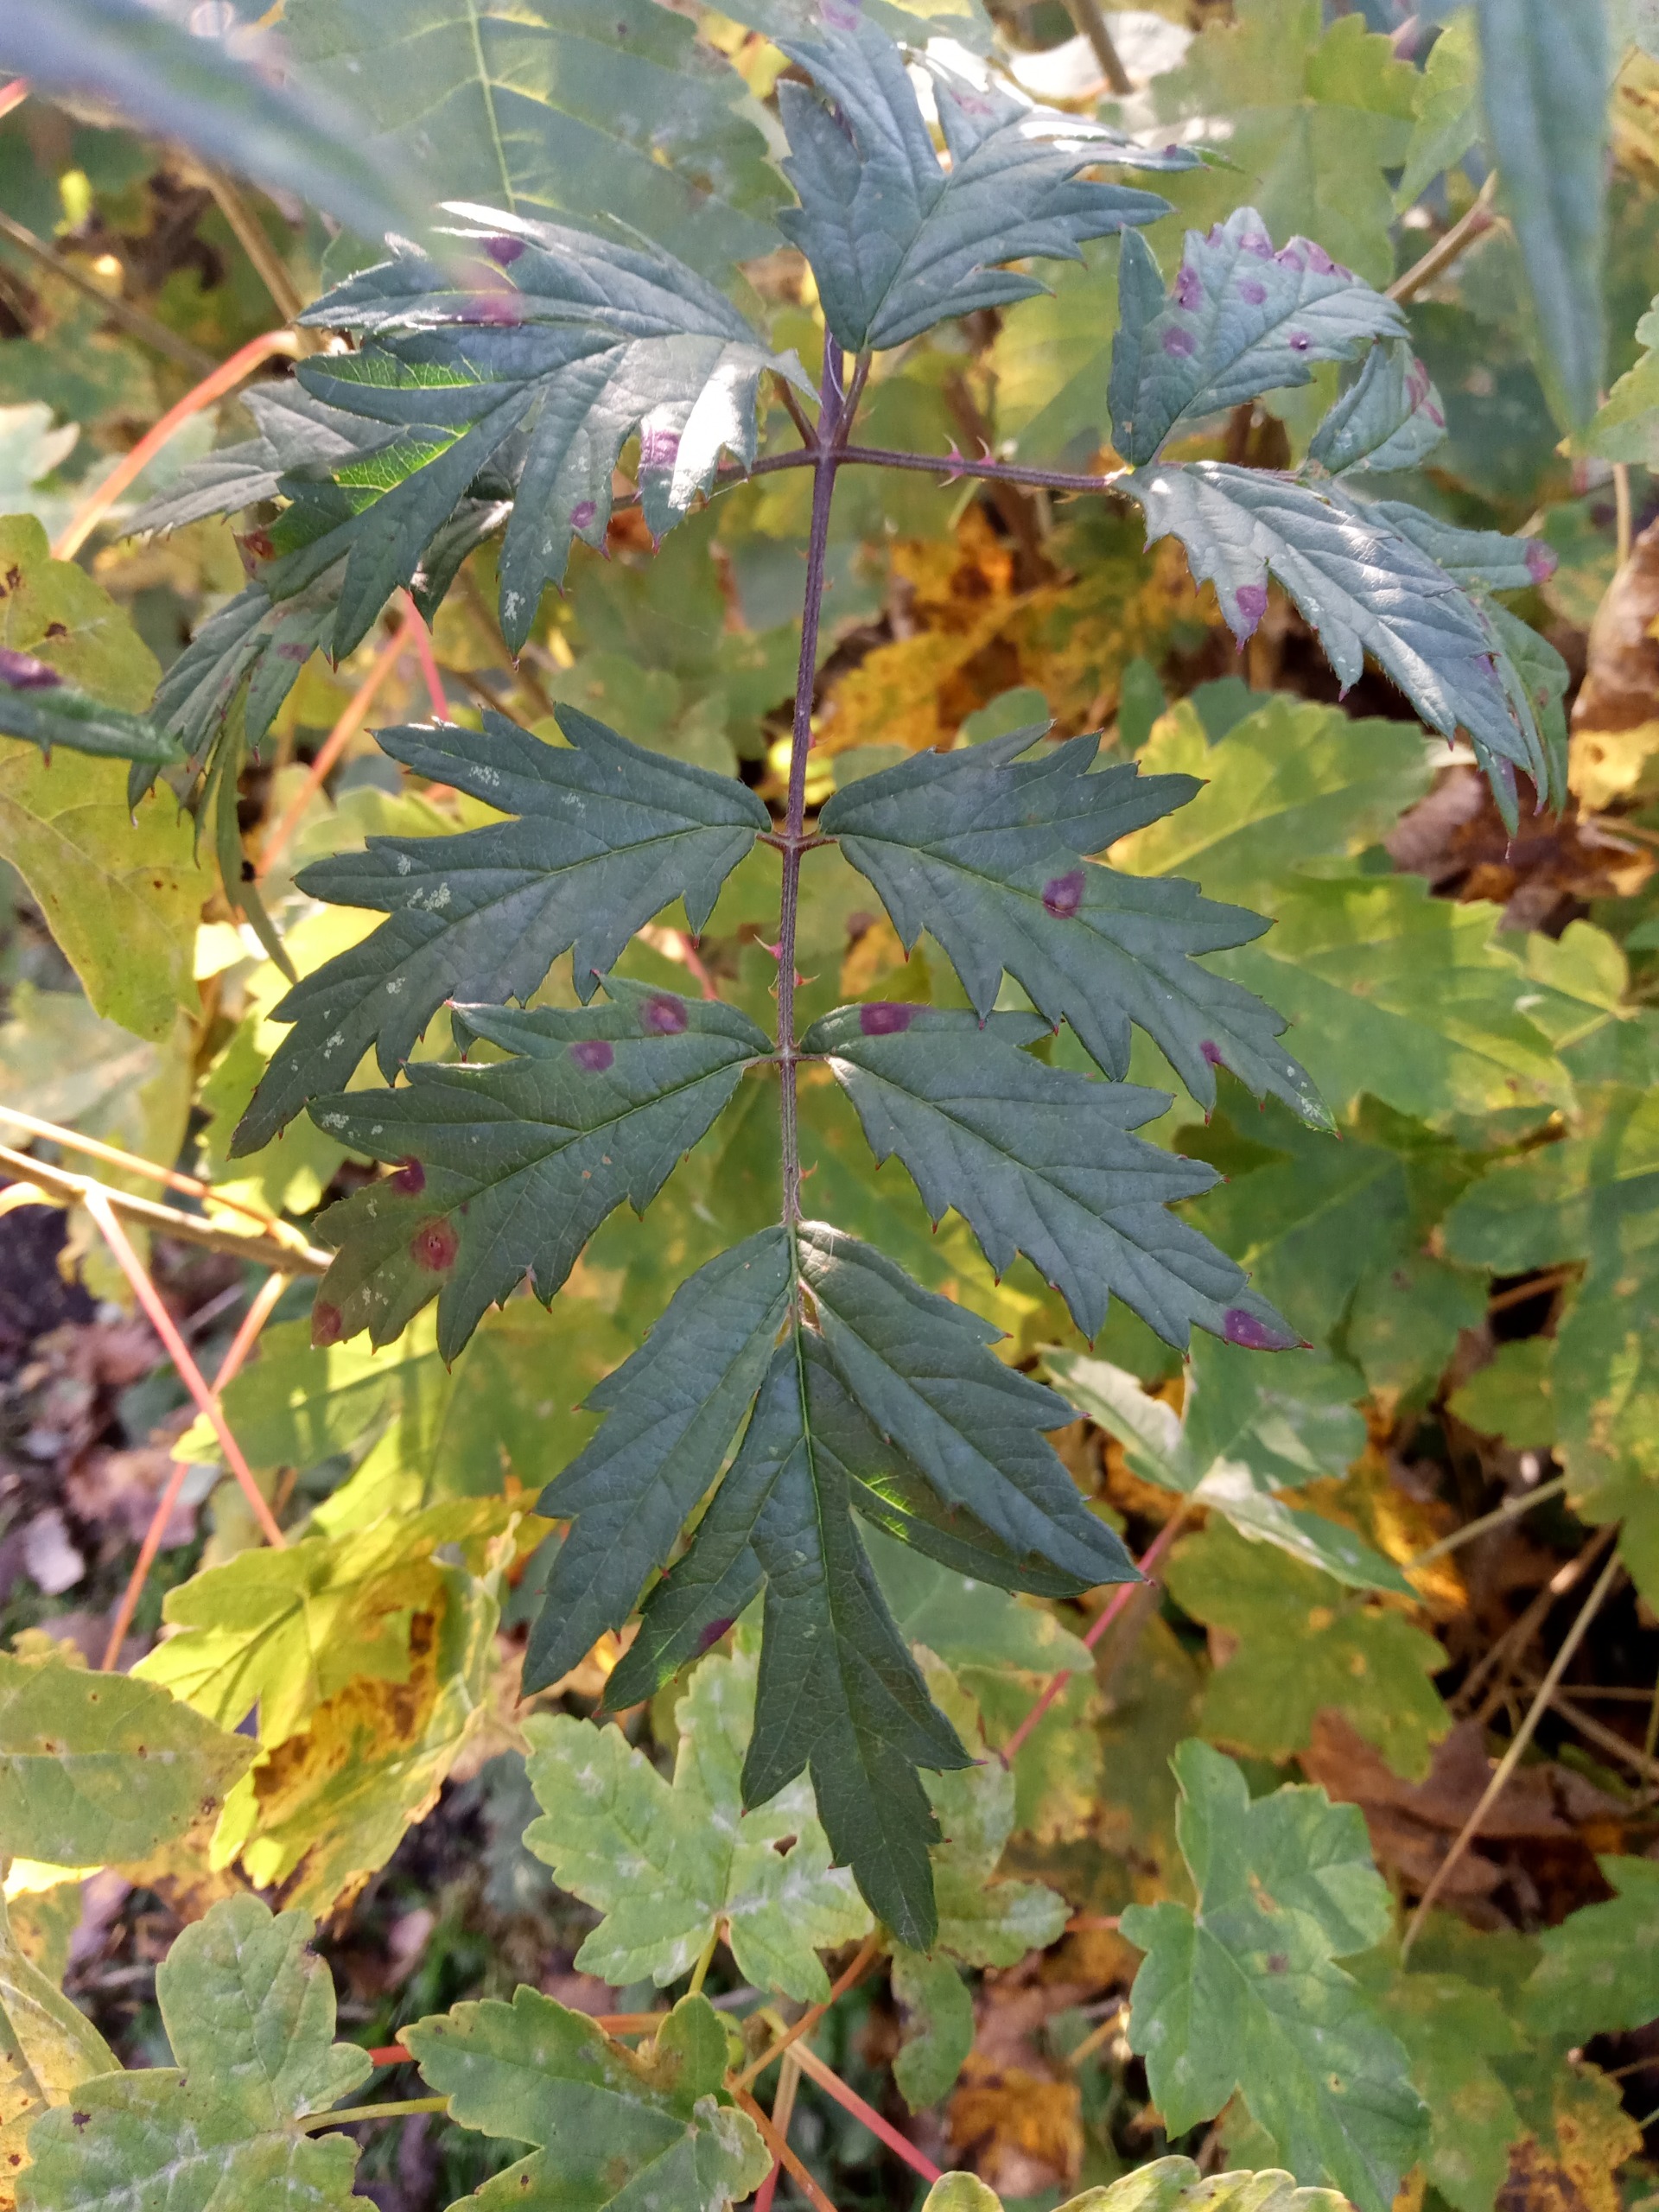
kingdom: Plantae
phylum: Tracheophyta
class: Magnoliopsida
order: Rosales
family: Rosaceae
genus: Rubus
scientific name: Rubus laciniatus
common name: Fliget brombær
